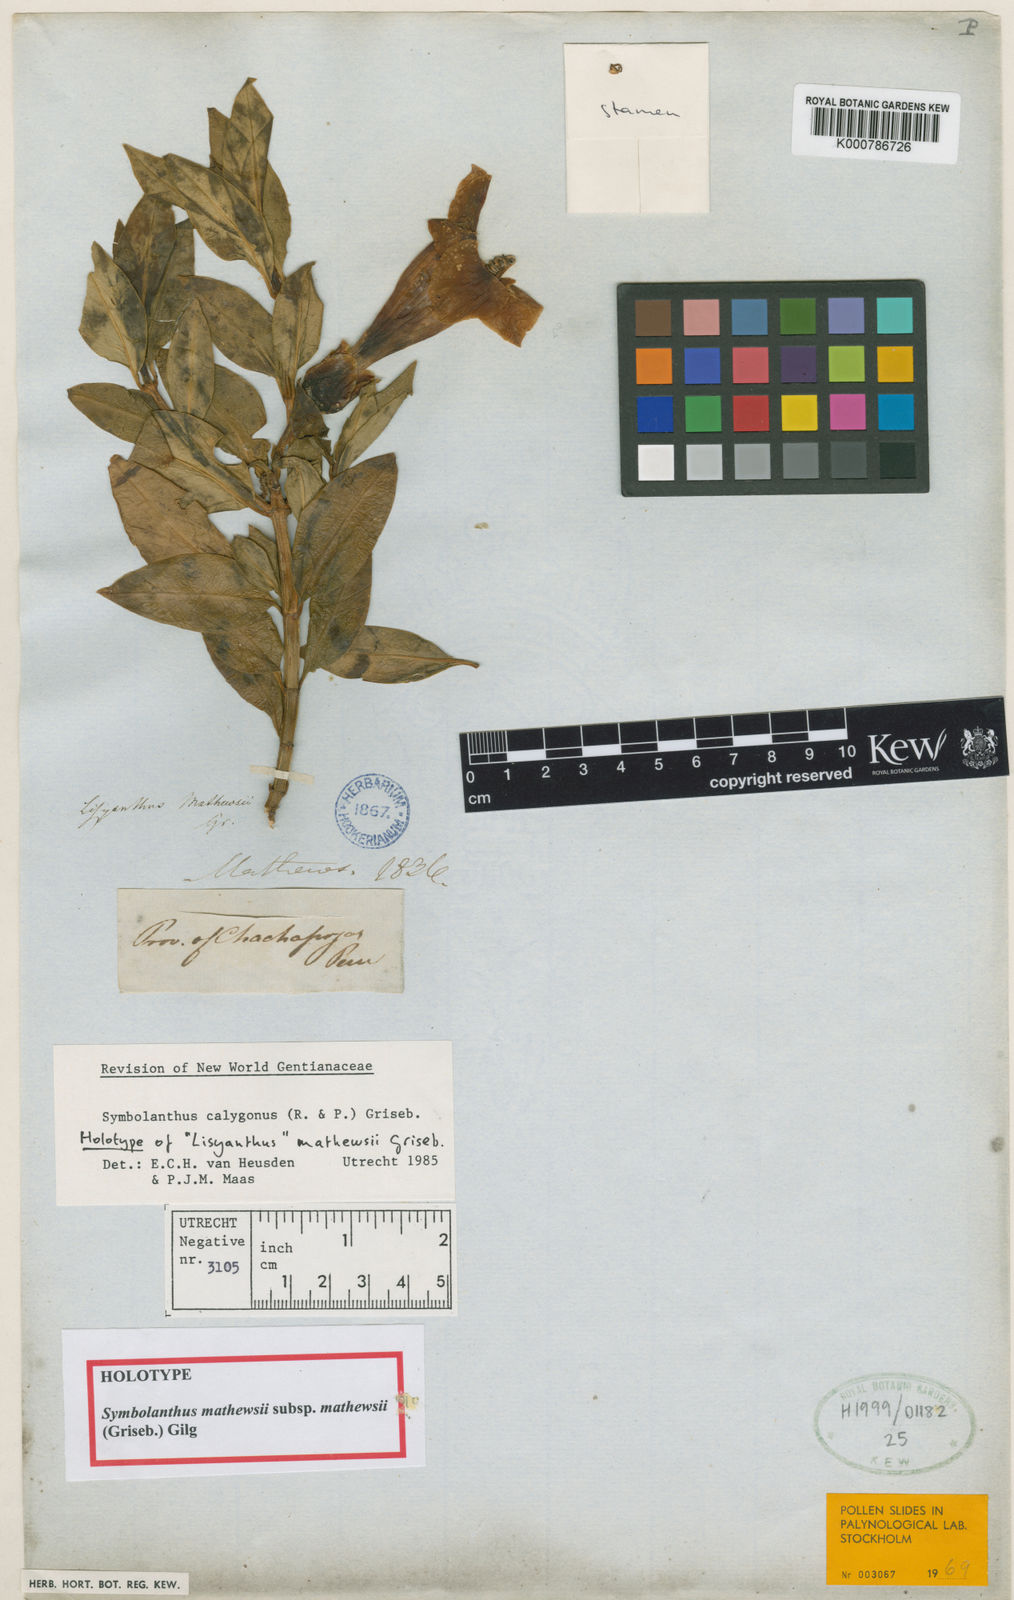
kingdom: Plantae
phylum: Tracheophyta
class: Magnoliopsida
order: Gentianales
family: Gentianaceae
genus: Symbolanthus
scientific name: Symbolanthus
